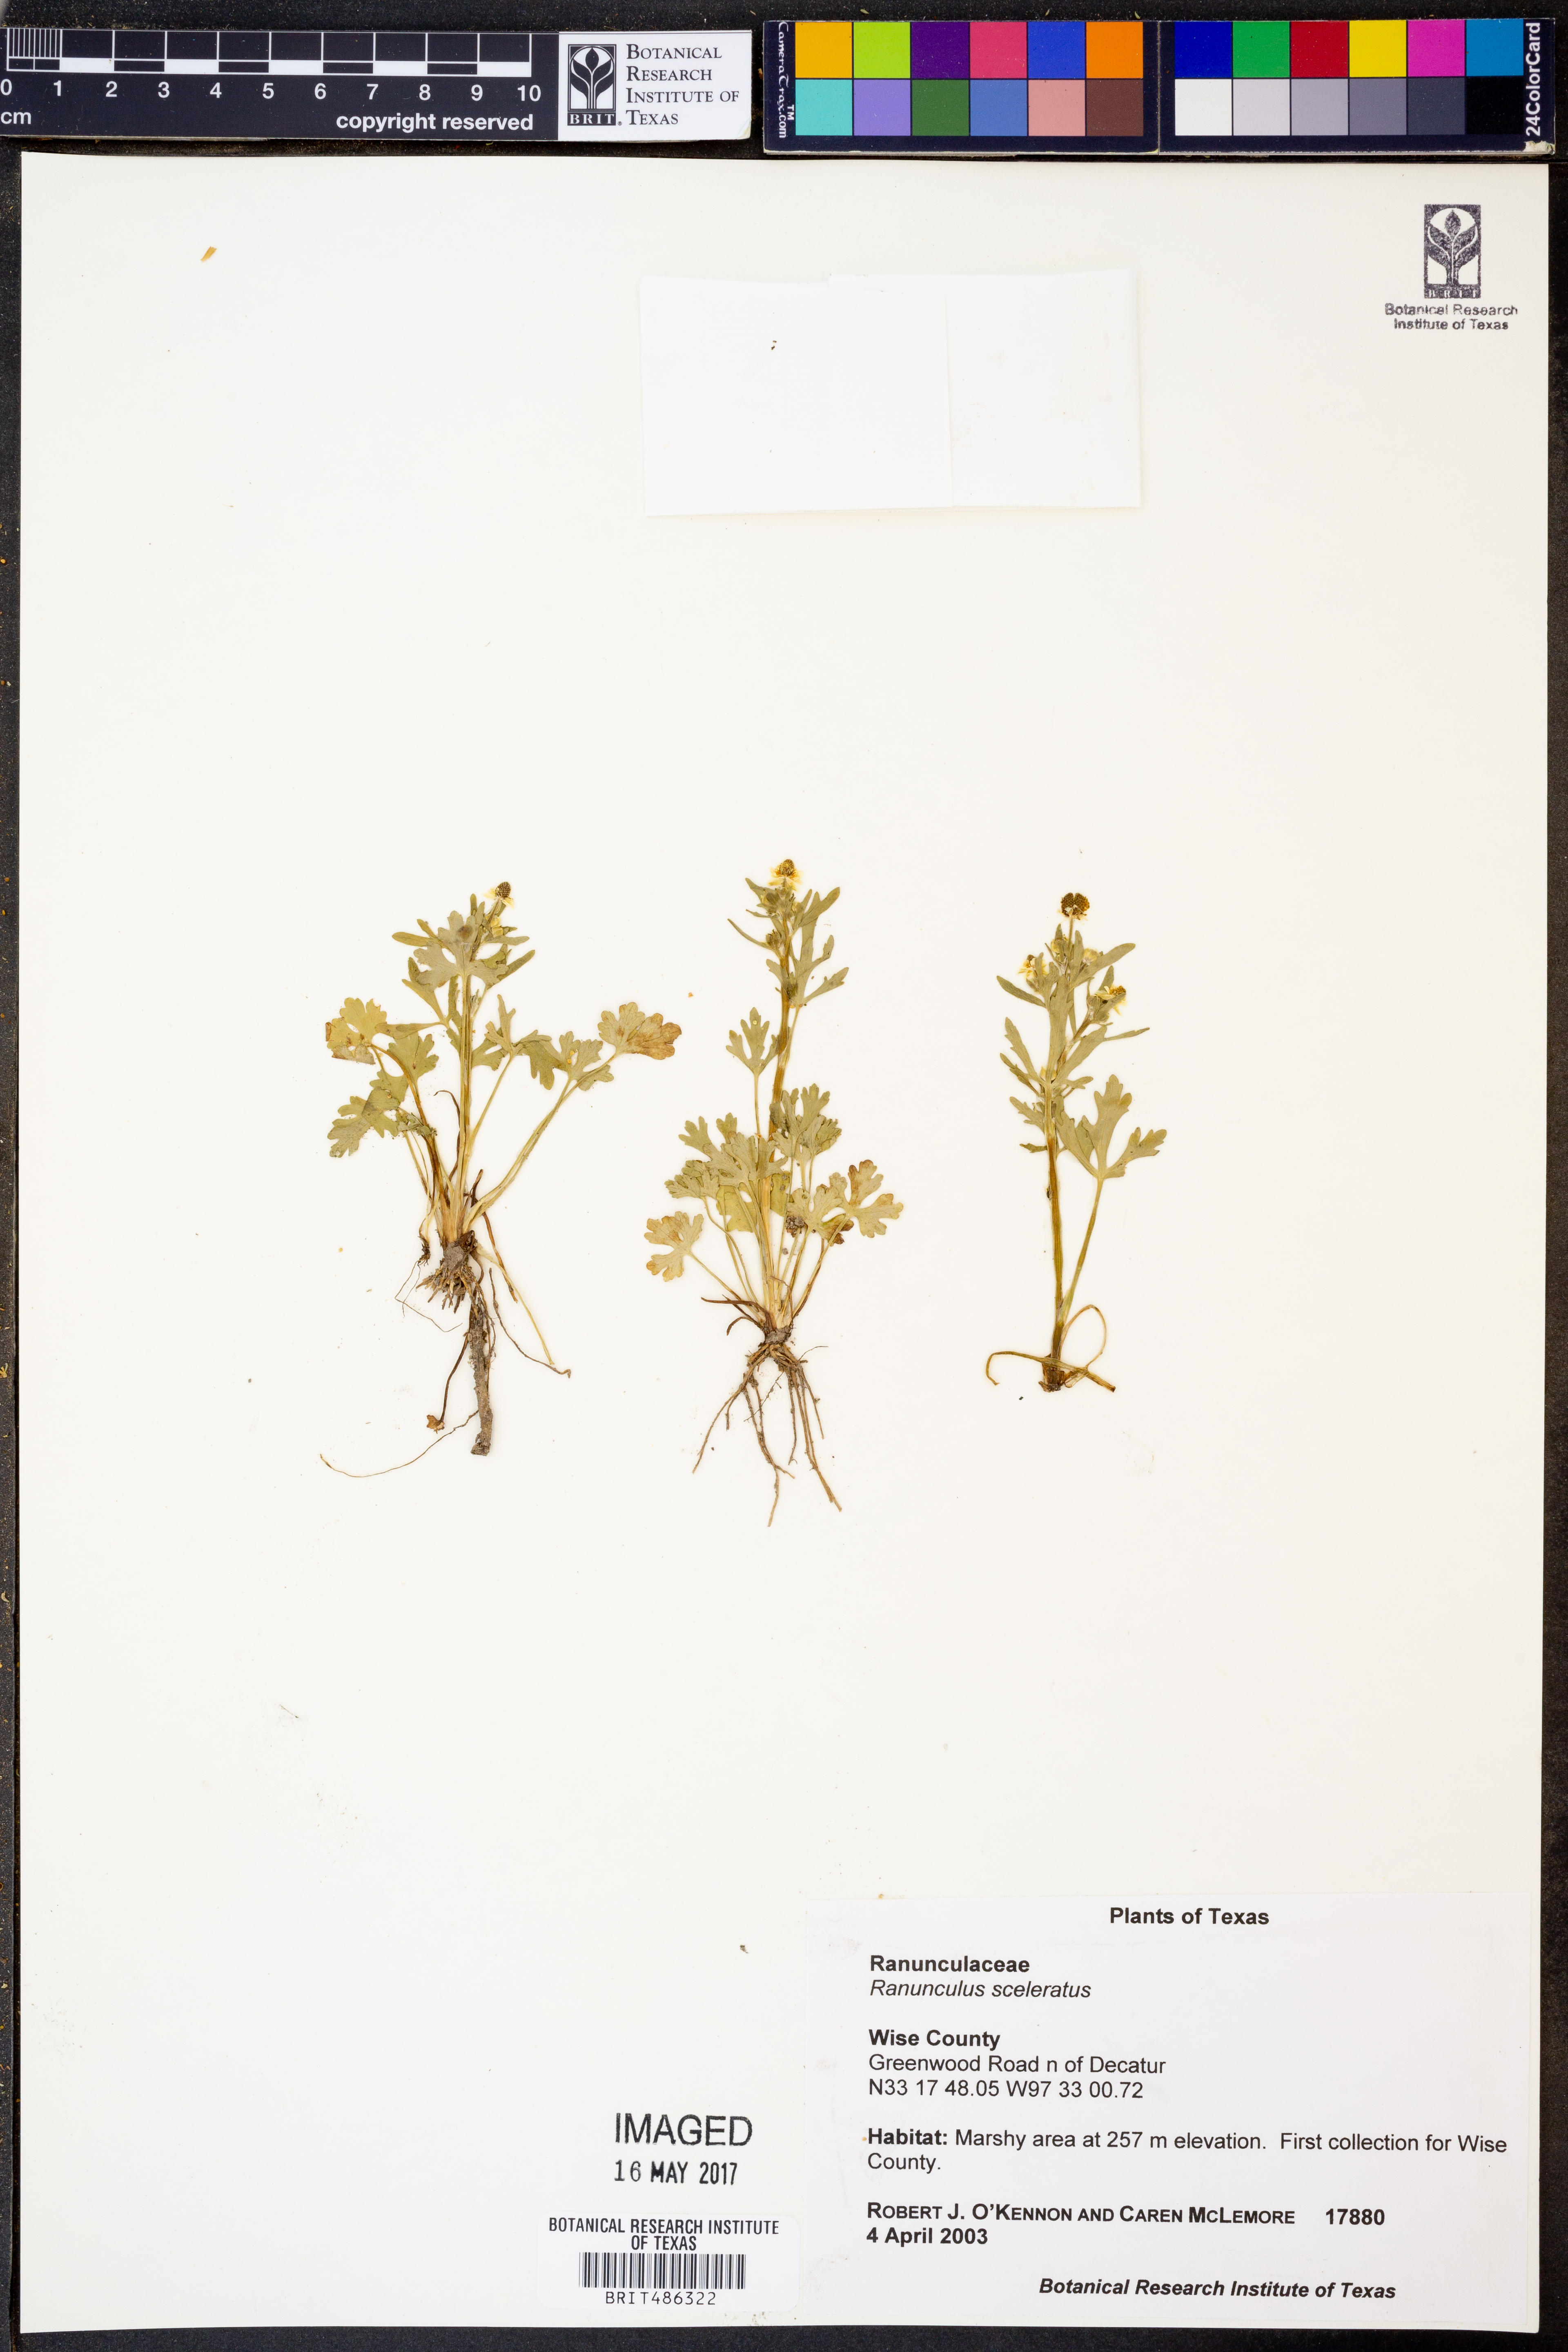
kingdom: Plantae
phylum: Tracheophyta
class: Magnoliopsida
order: Ranunculales
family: Ranunculaceae
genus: Ranunculus
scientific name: Ranunculus sceleratus
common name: Celery-leaved buttercup
